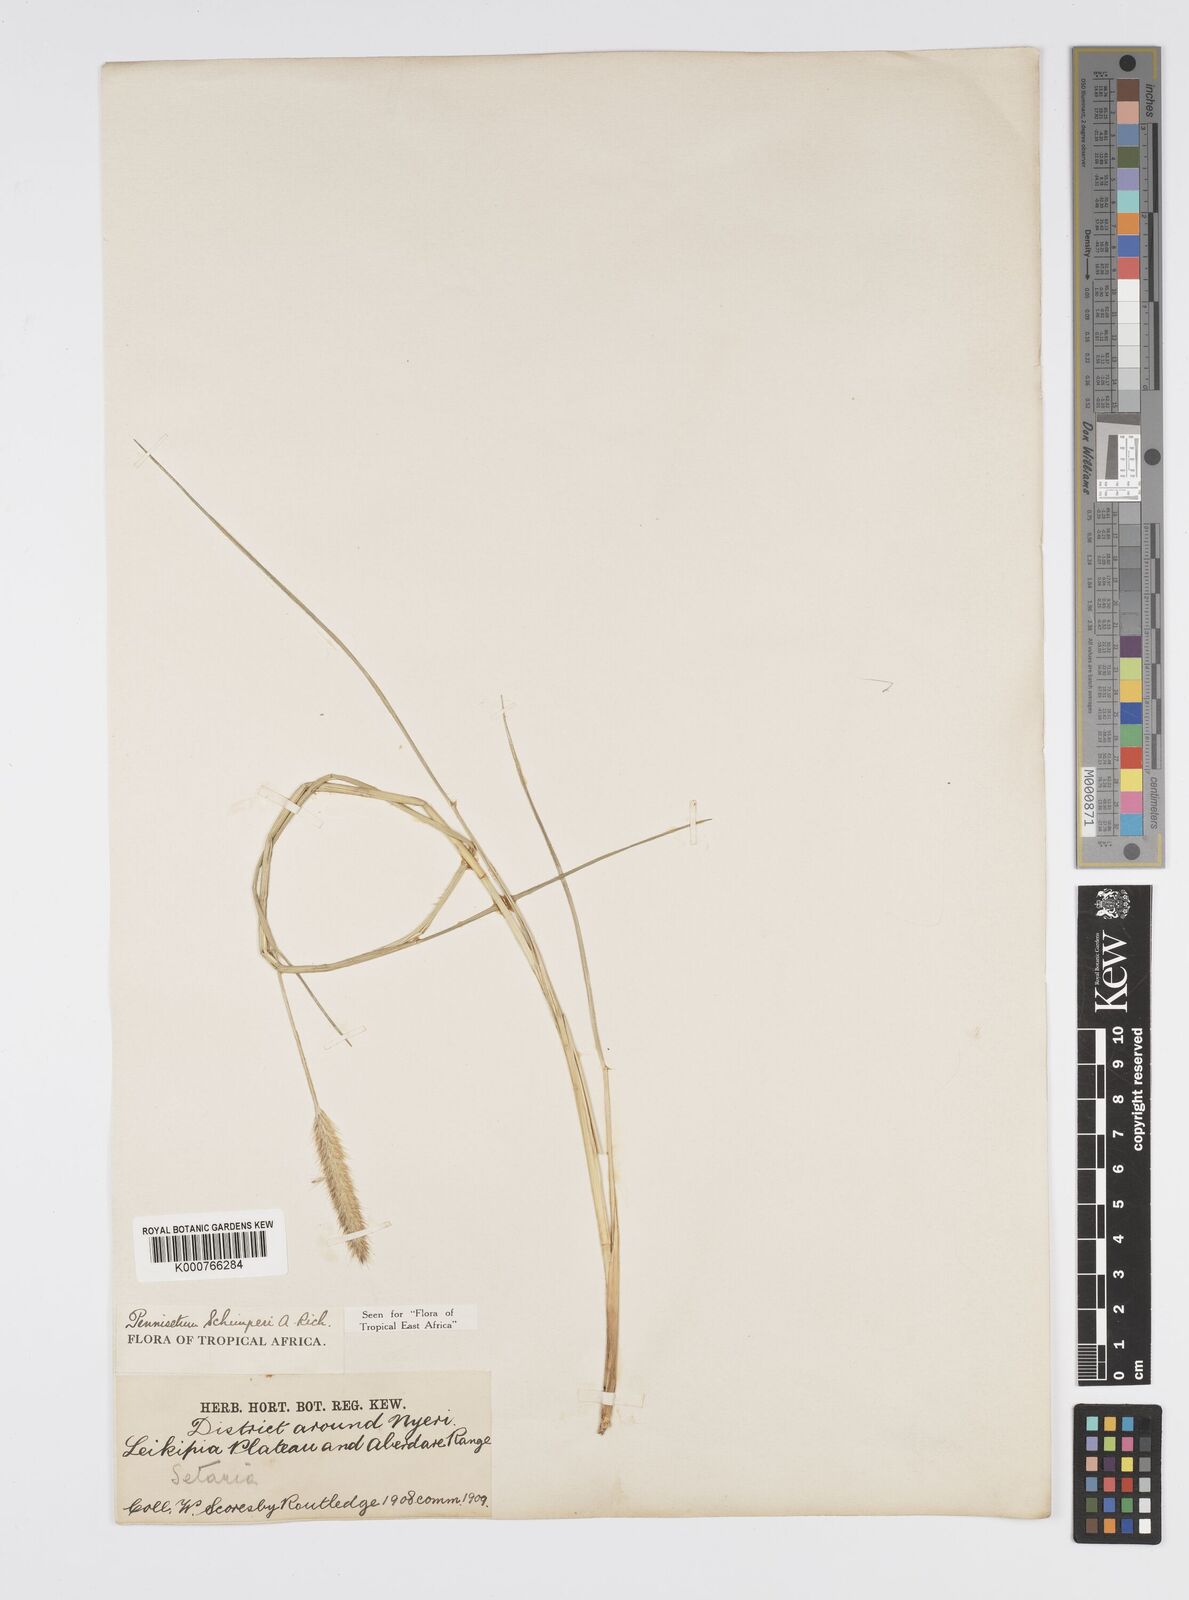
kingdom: Plantae
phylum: Tracheophyta
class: Liliopsida
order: Poales
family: Poaceae
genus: Cenchrus
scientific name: Cenchrus sphacelatus
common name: Bulgras
